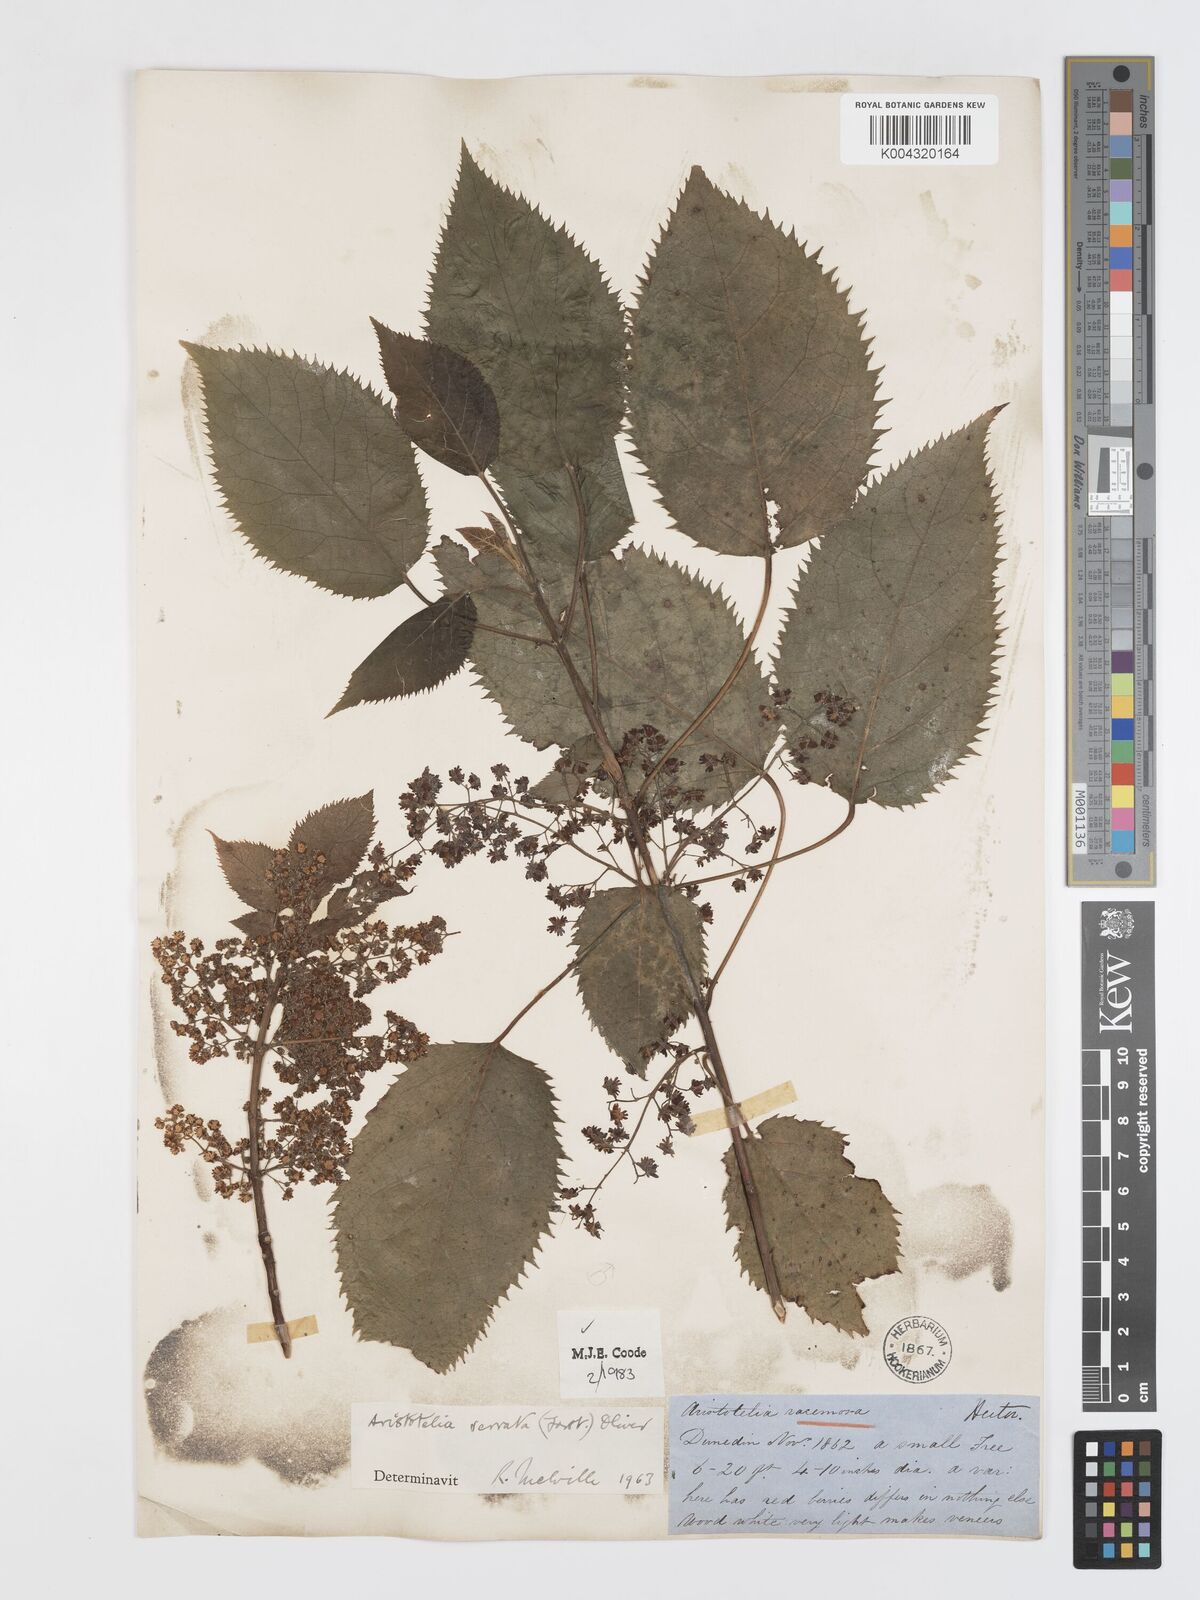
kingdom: Plantae
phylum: Tracheophyta
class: Magnoliopsida
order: Oxalidales
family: Elaeocarpaceae
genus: Aristotelia
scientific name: Aristotelia serrata
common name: New zealand wineberry
